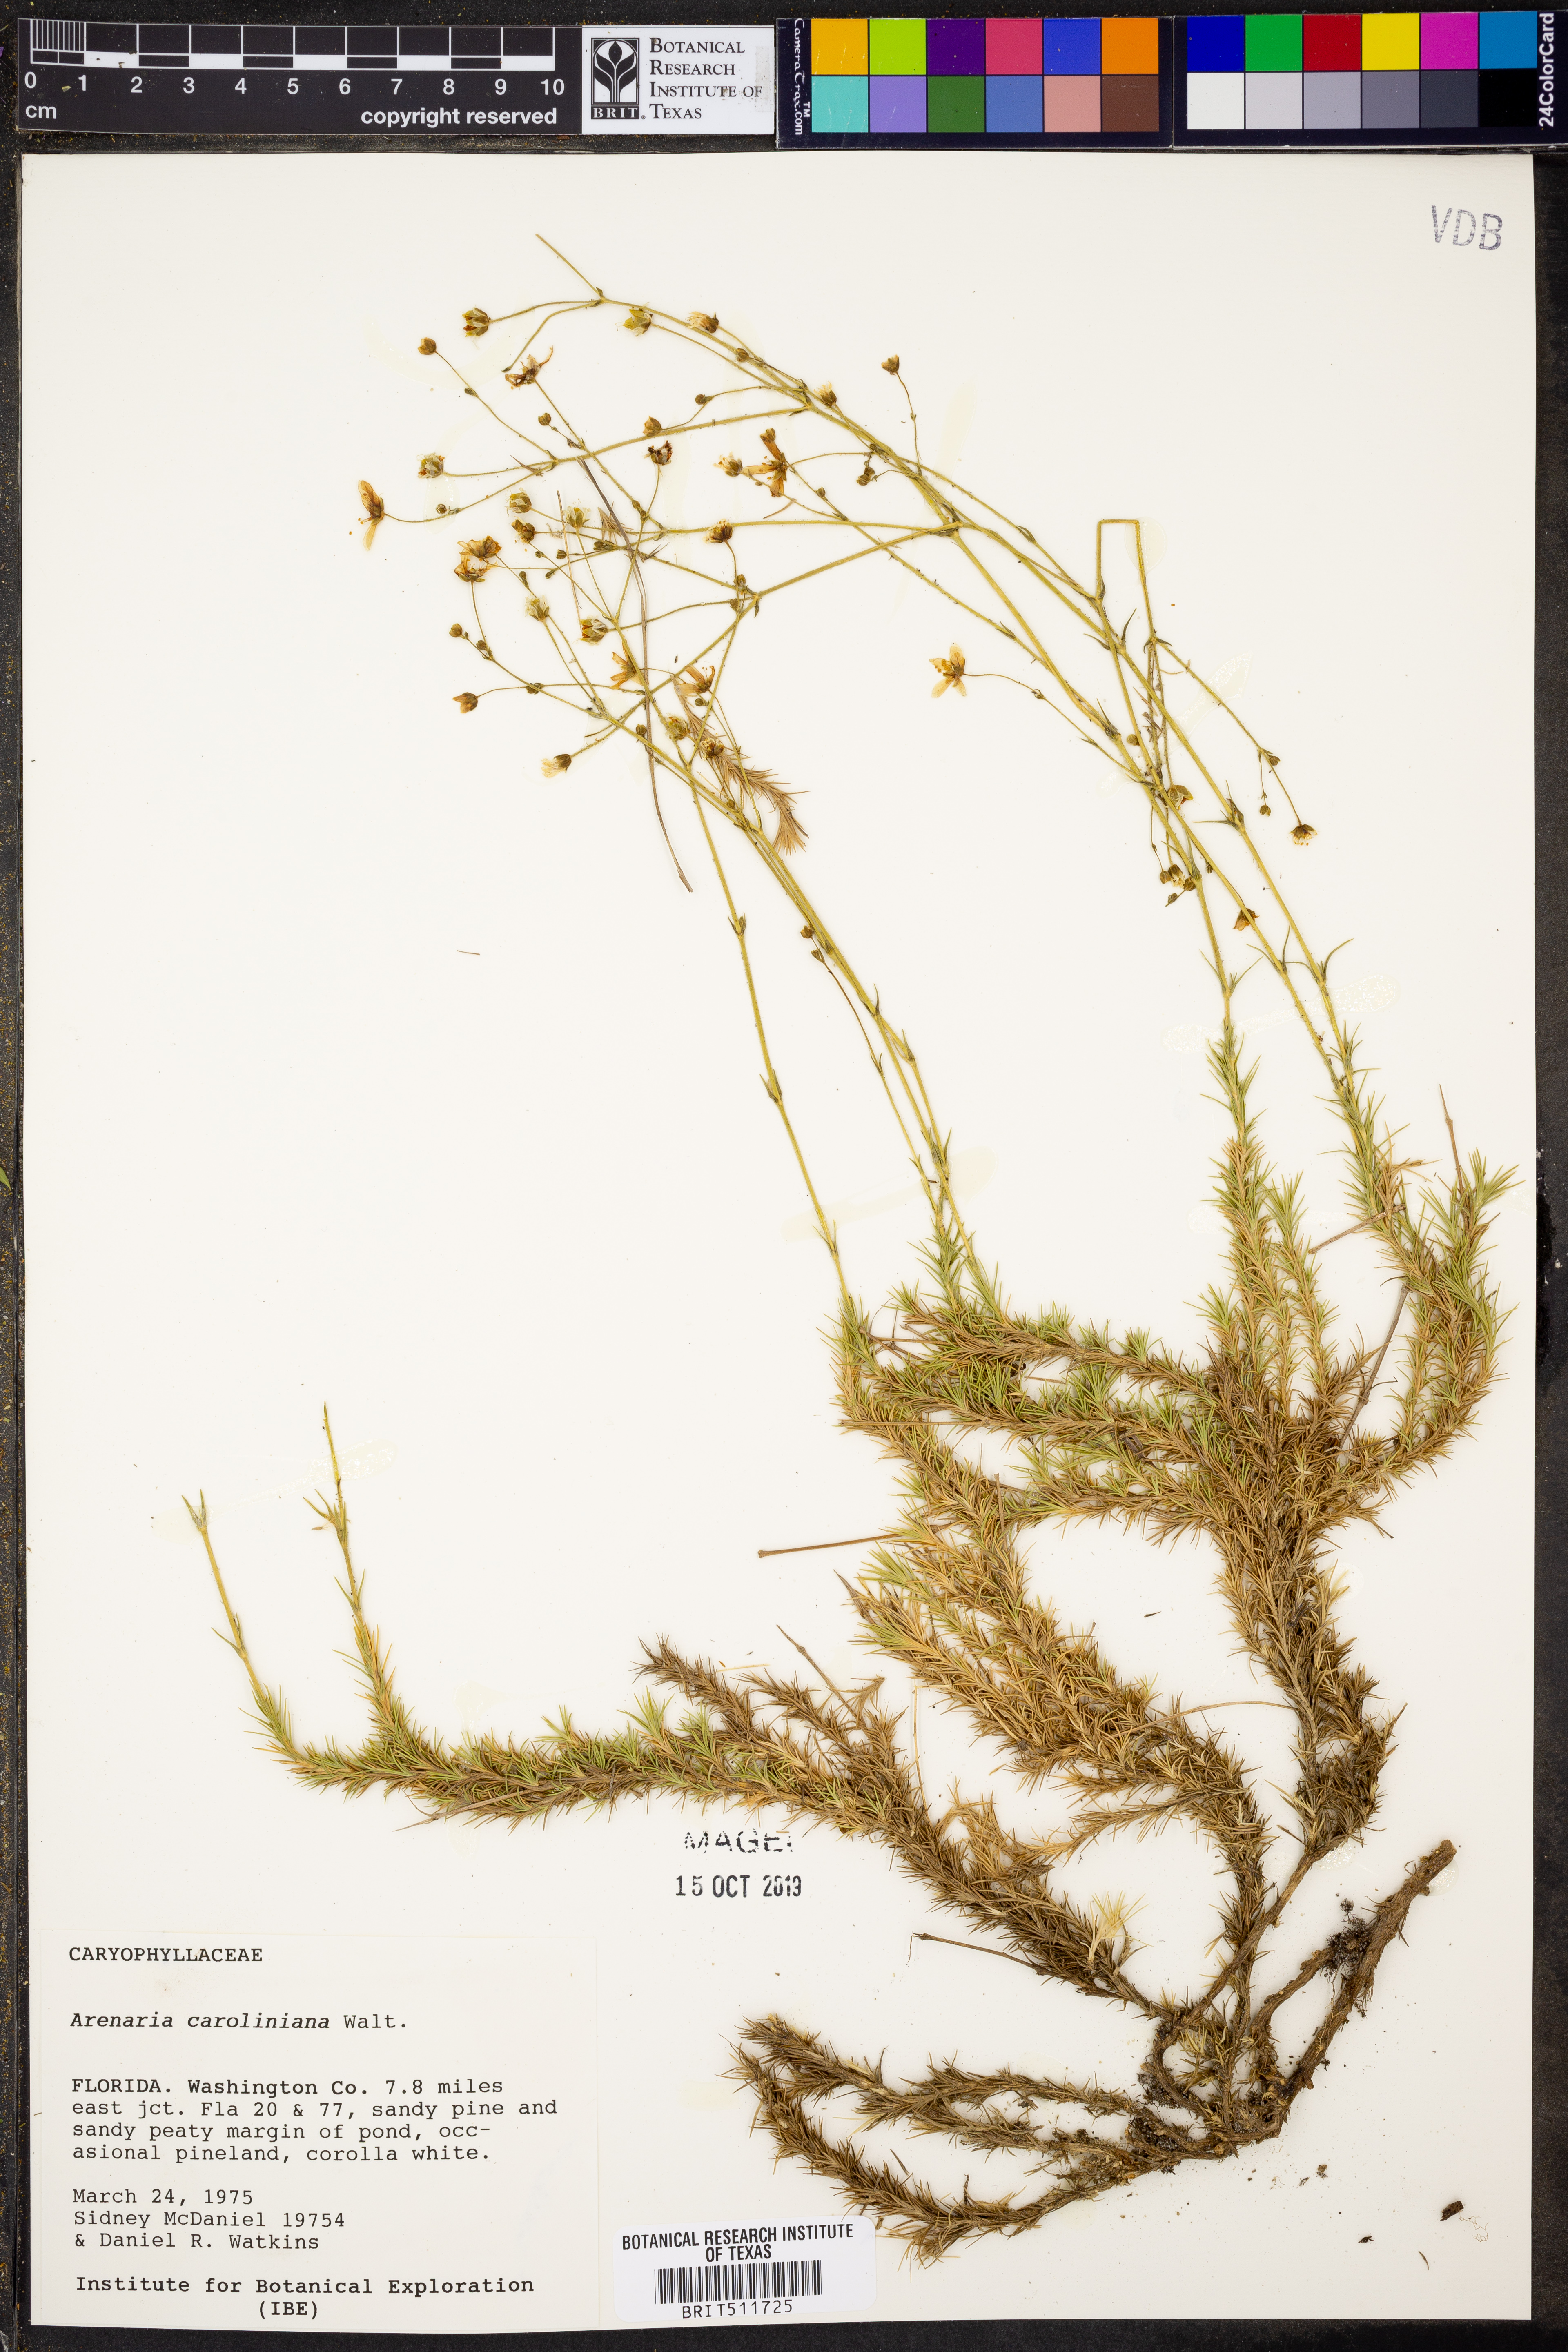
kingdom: Plantae
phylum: Tracheophyta
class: Magnoliopsida
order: Caryophyllales
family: Caryophyllaceae
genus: Geocarpon
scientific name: Geocarpon carolinianum
